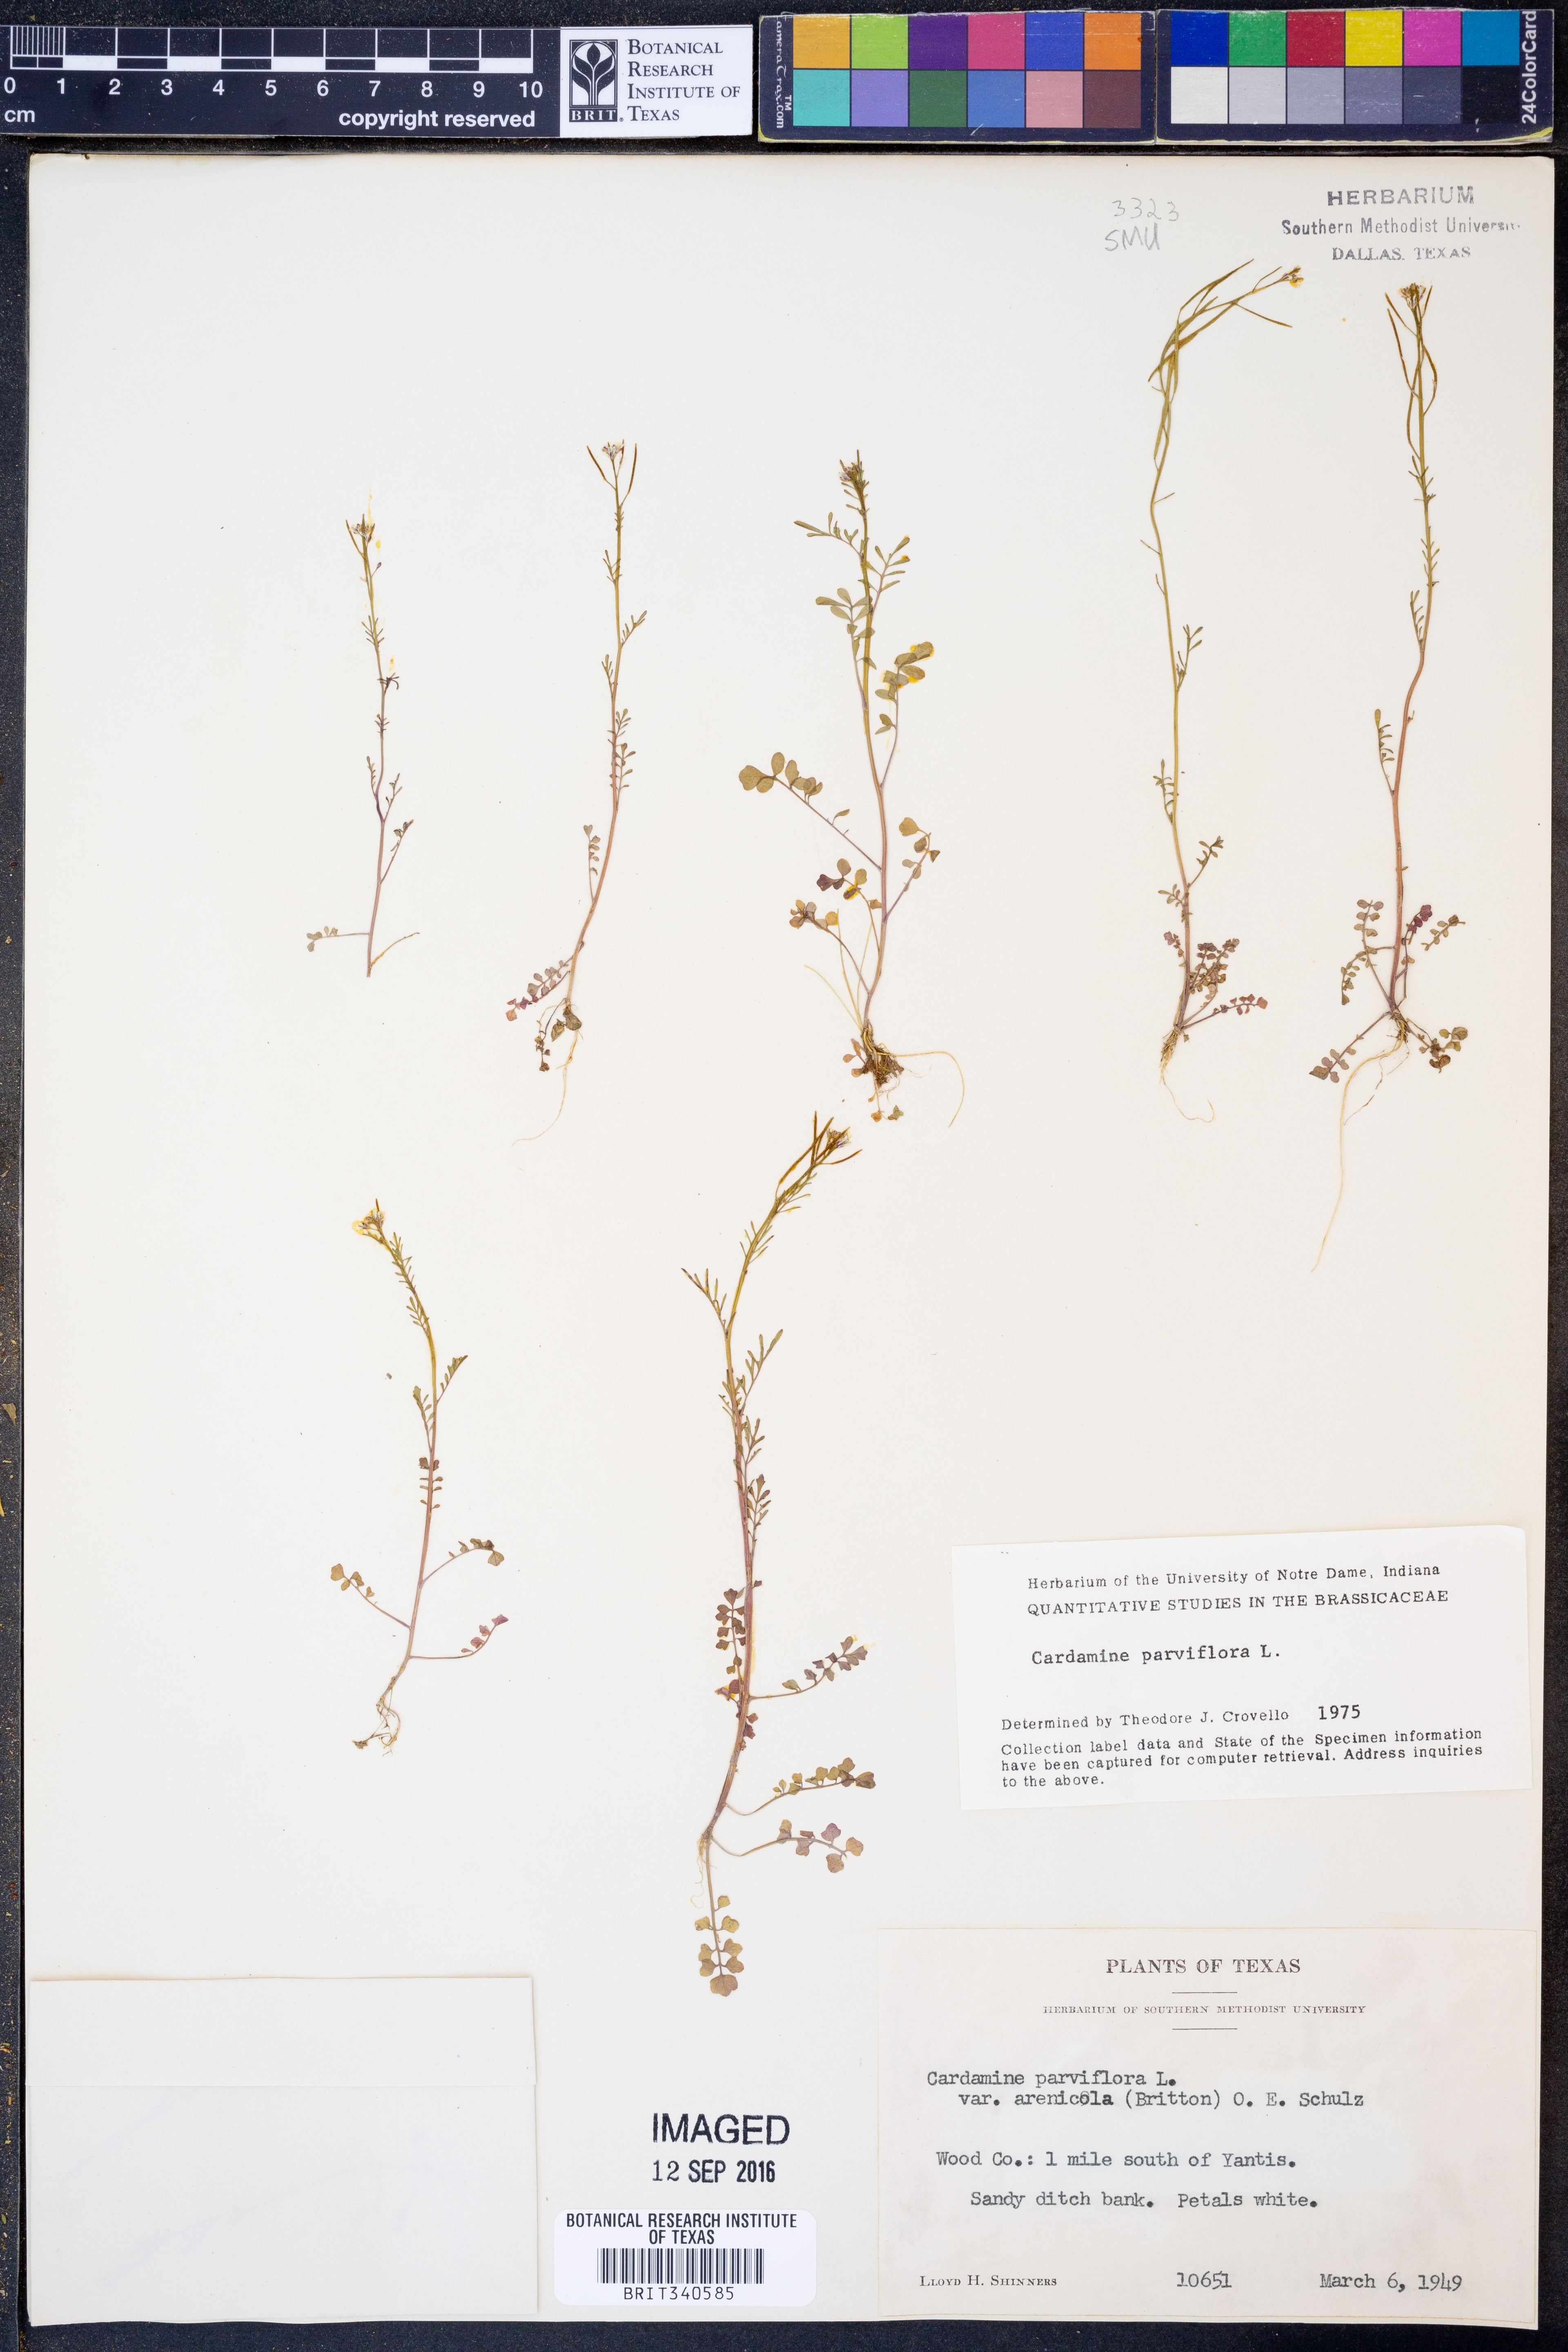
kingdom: Plantae
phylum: Tracheophyta
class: Magnoliopsida
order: Brassicales
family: Brassicaceae
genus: Cardamine
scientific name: Cardamine parviflora
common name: Sand bittercress
